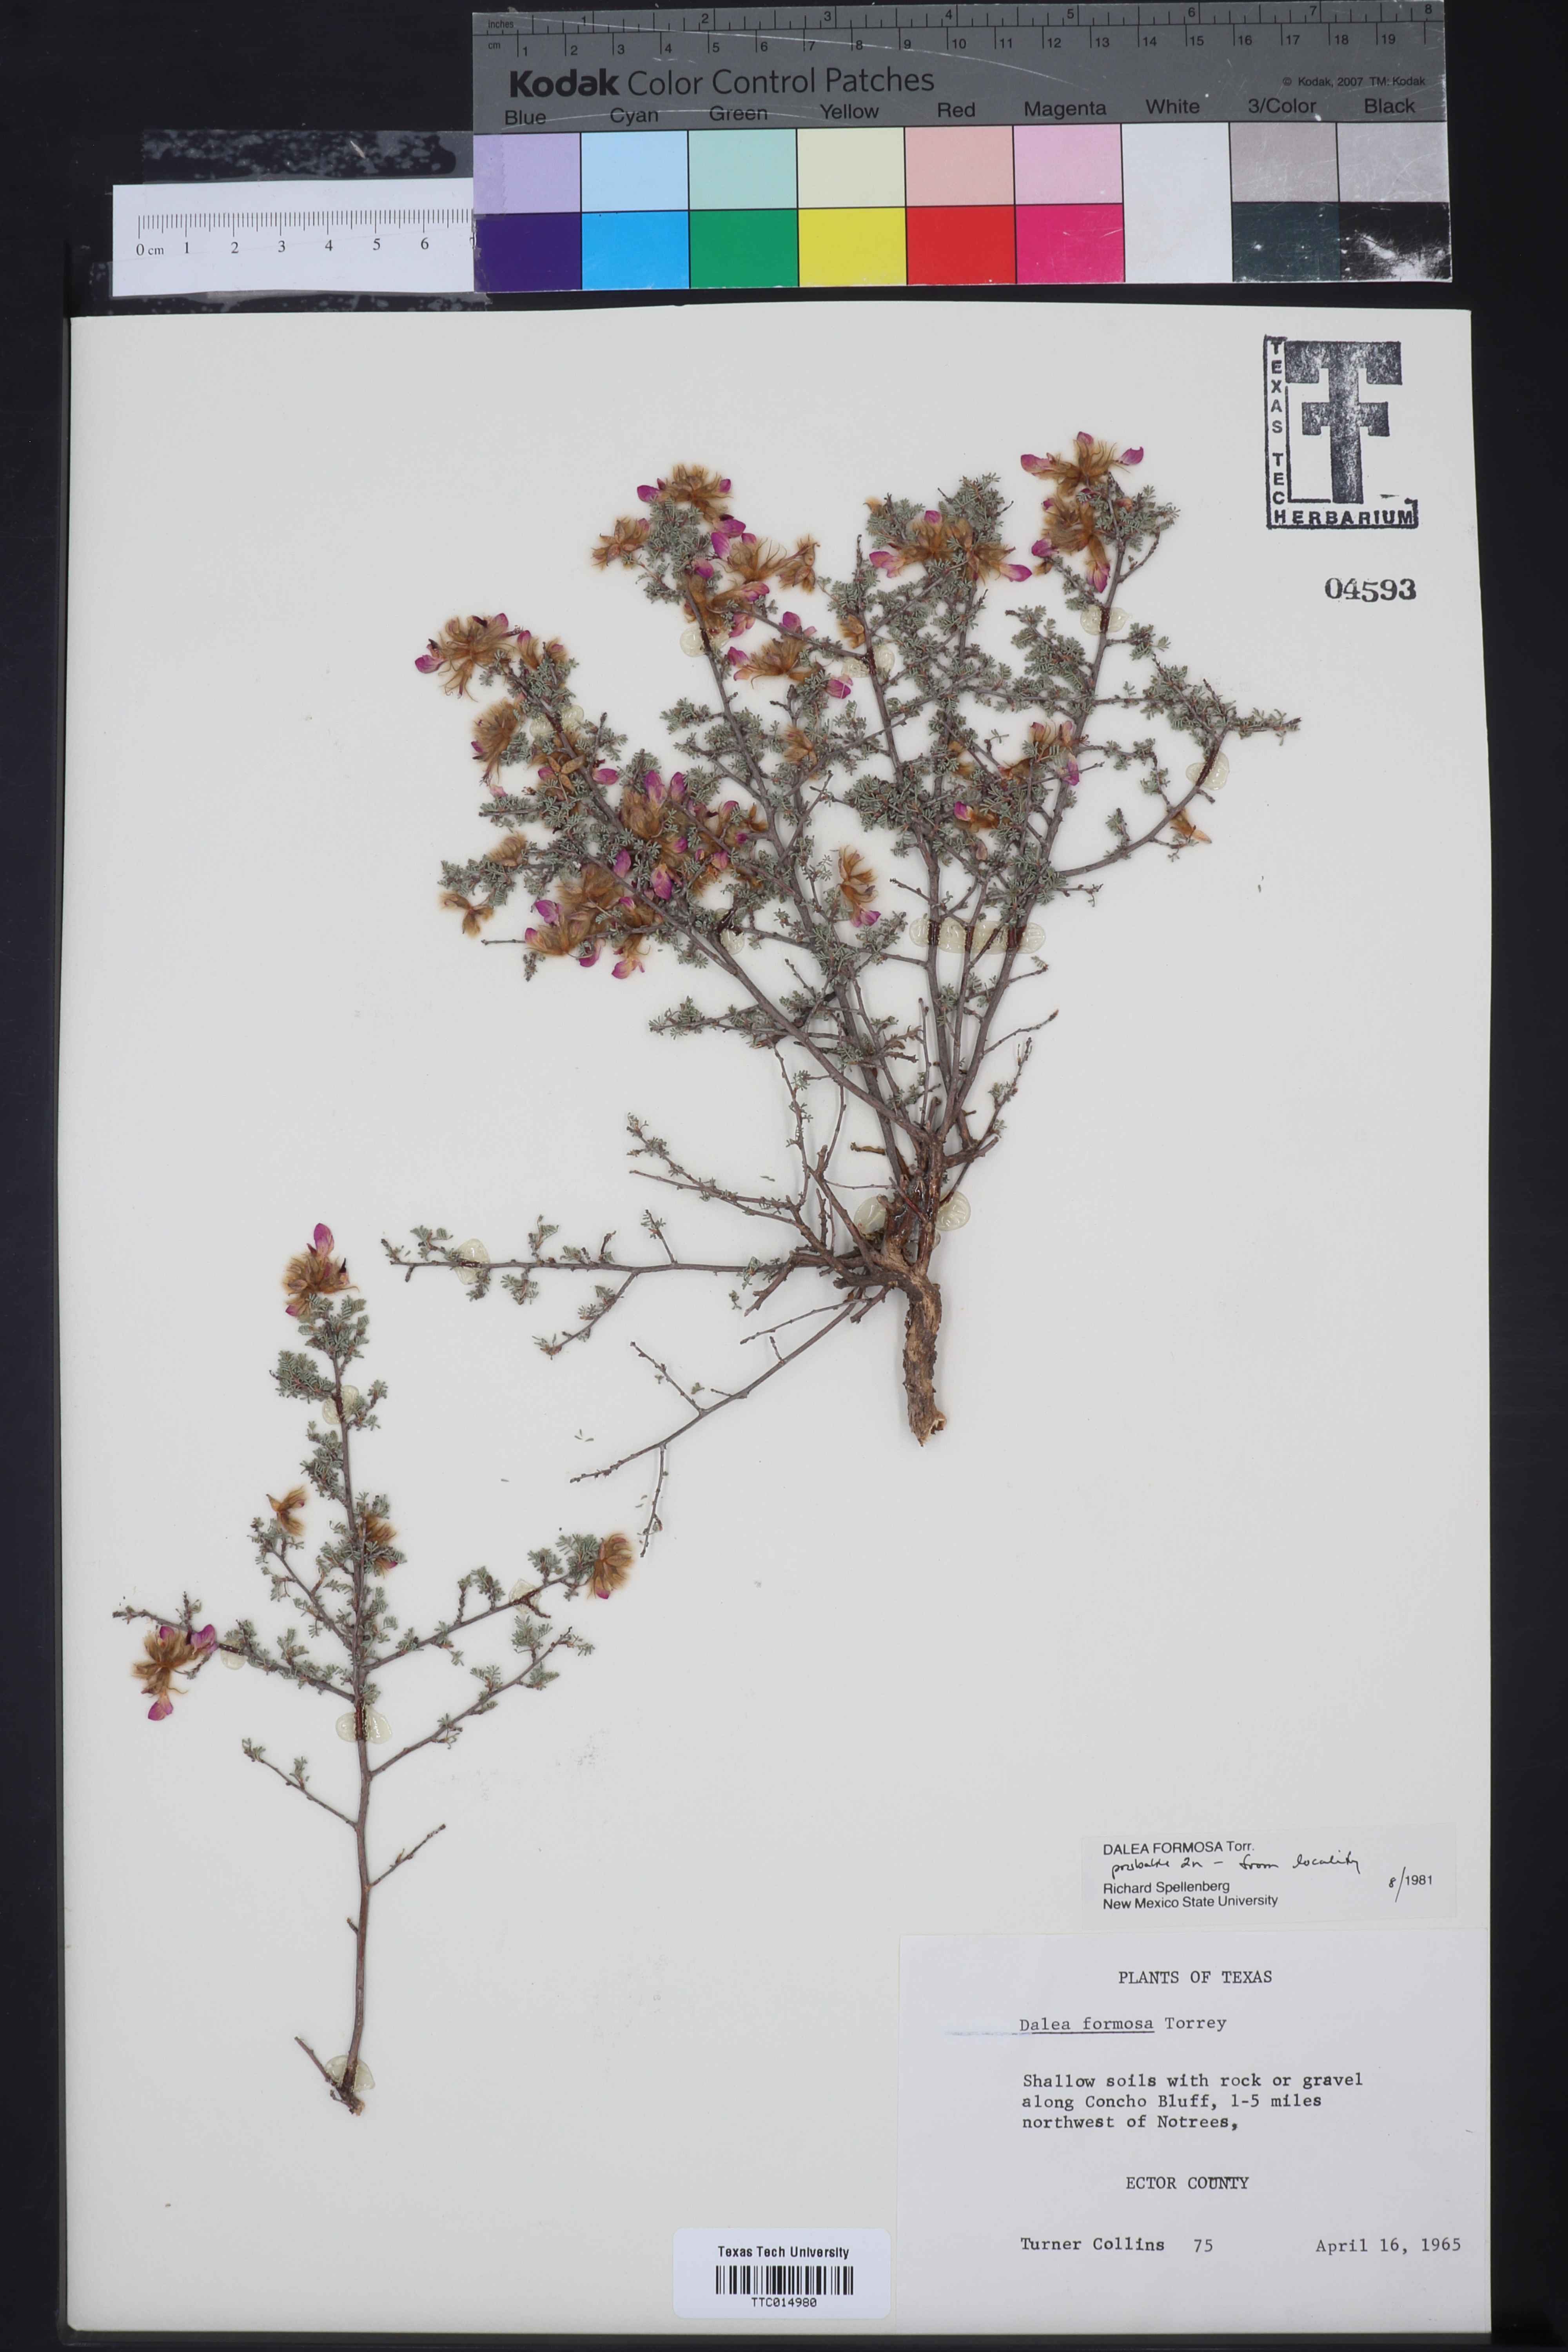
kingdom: Plantae
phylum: Tracheophyta
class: Magnoliopsida
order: Fabales
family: Fabaceae
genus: Dalea
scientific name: Dalea formosa
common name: Feather-plume dalea
